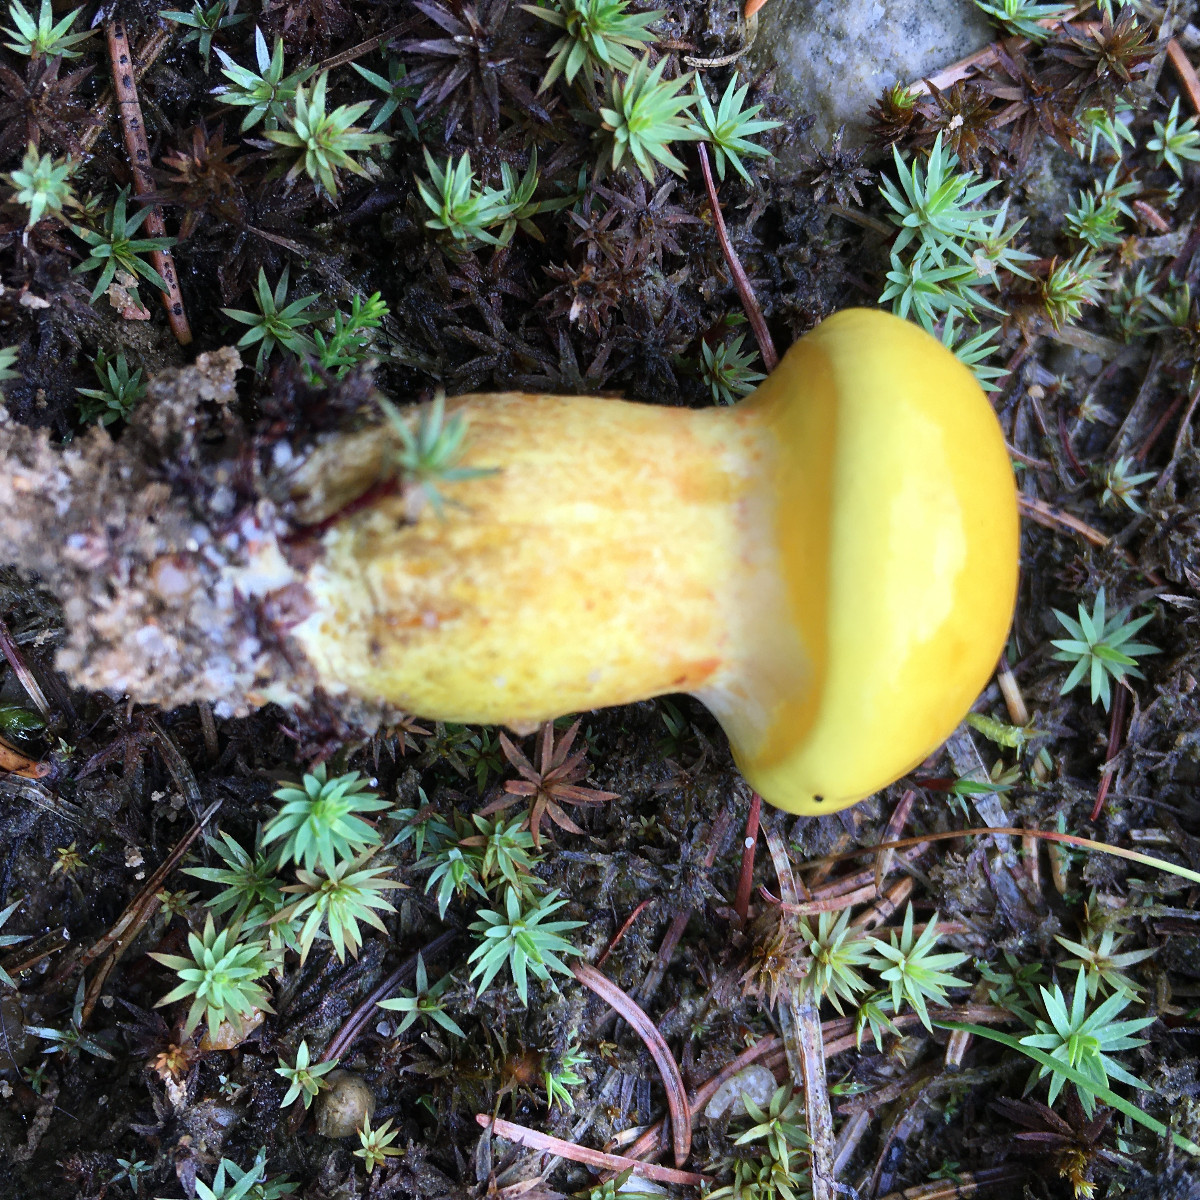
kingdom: Fungi
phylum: Basidiomycota
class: Agaricomycetes
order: Boletales
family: Suillaceae
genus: Suillus
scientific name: Suillus grevillei
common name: lærke-slimrørhat
